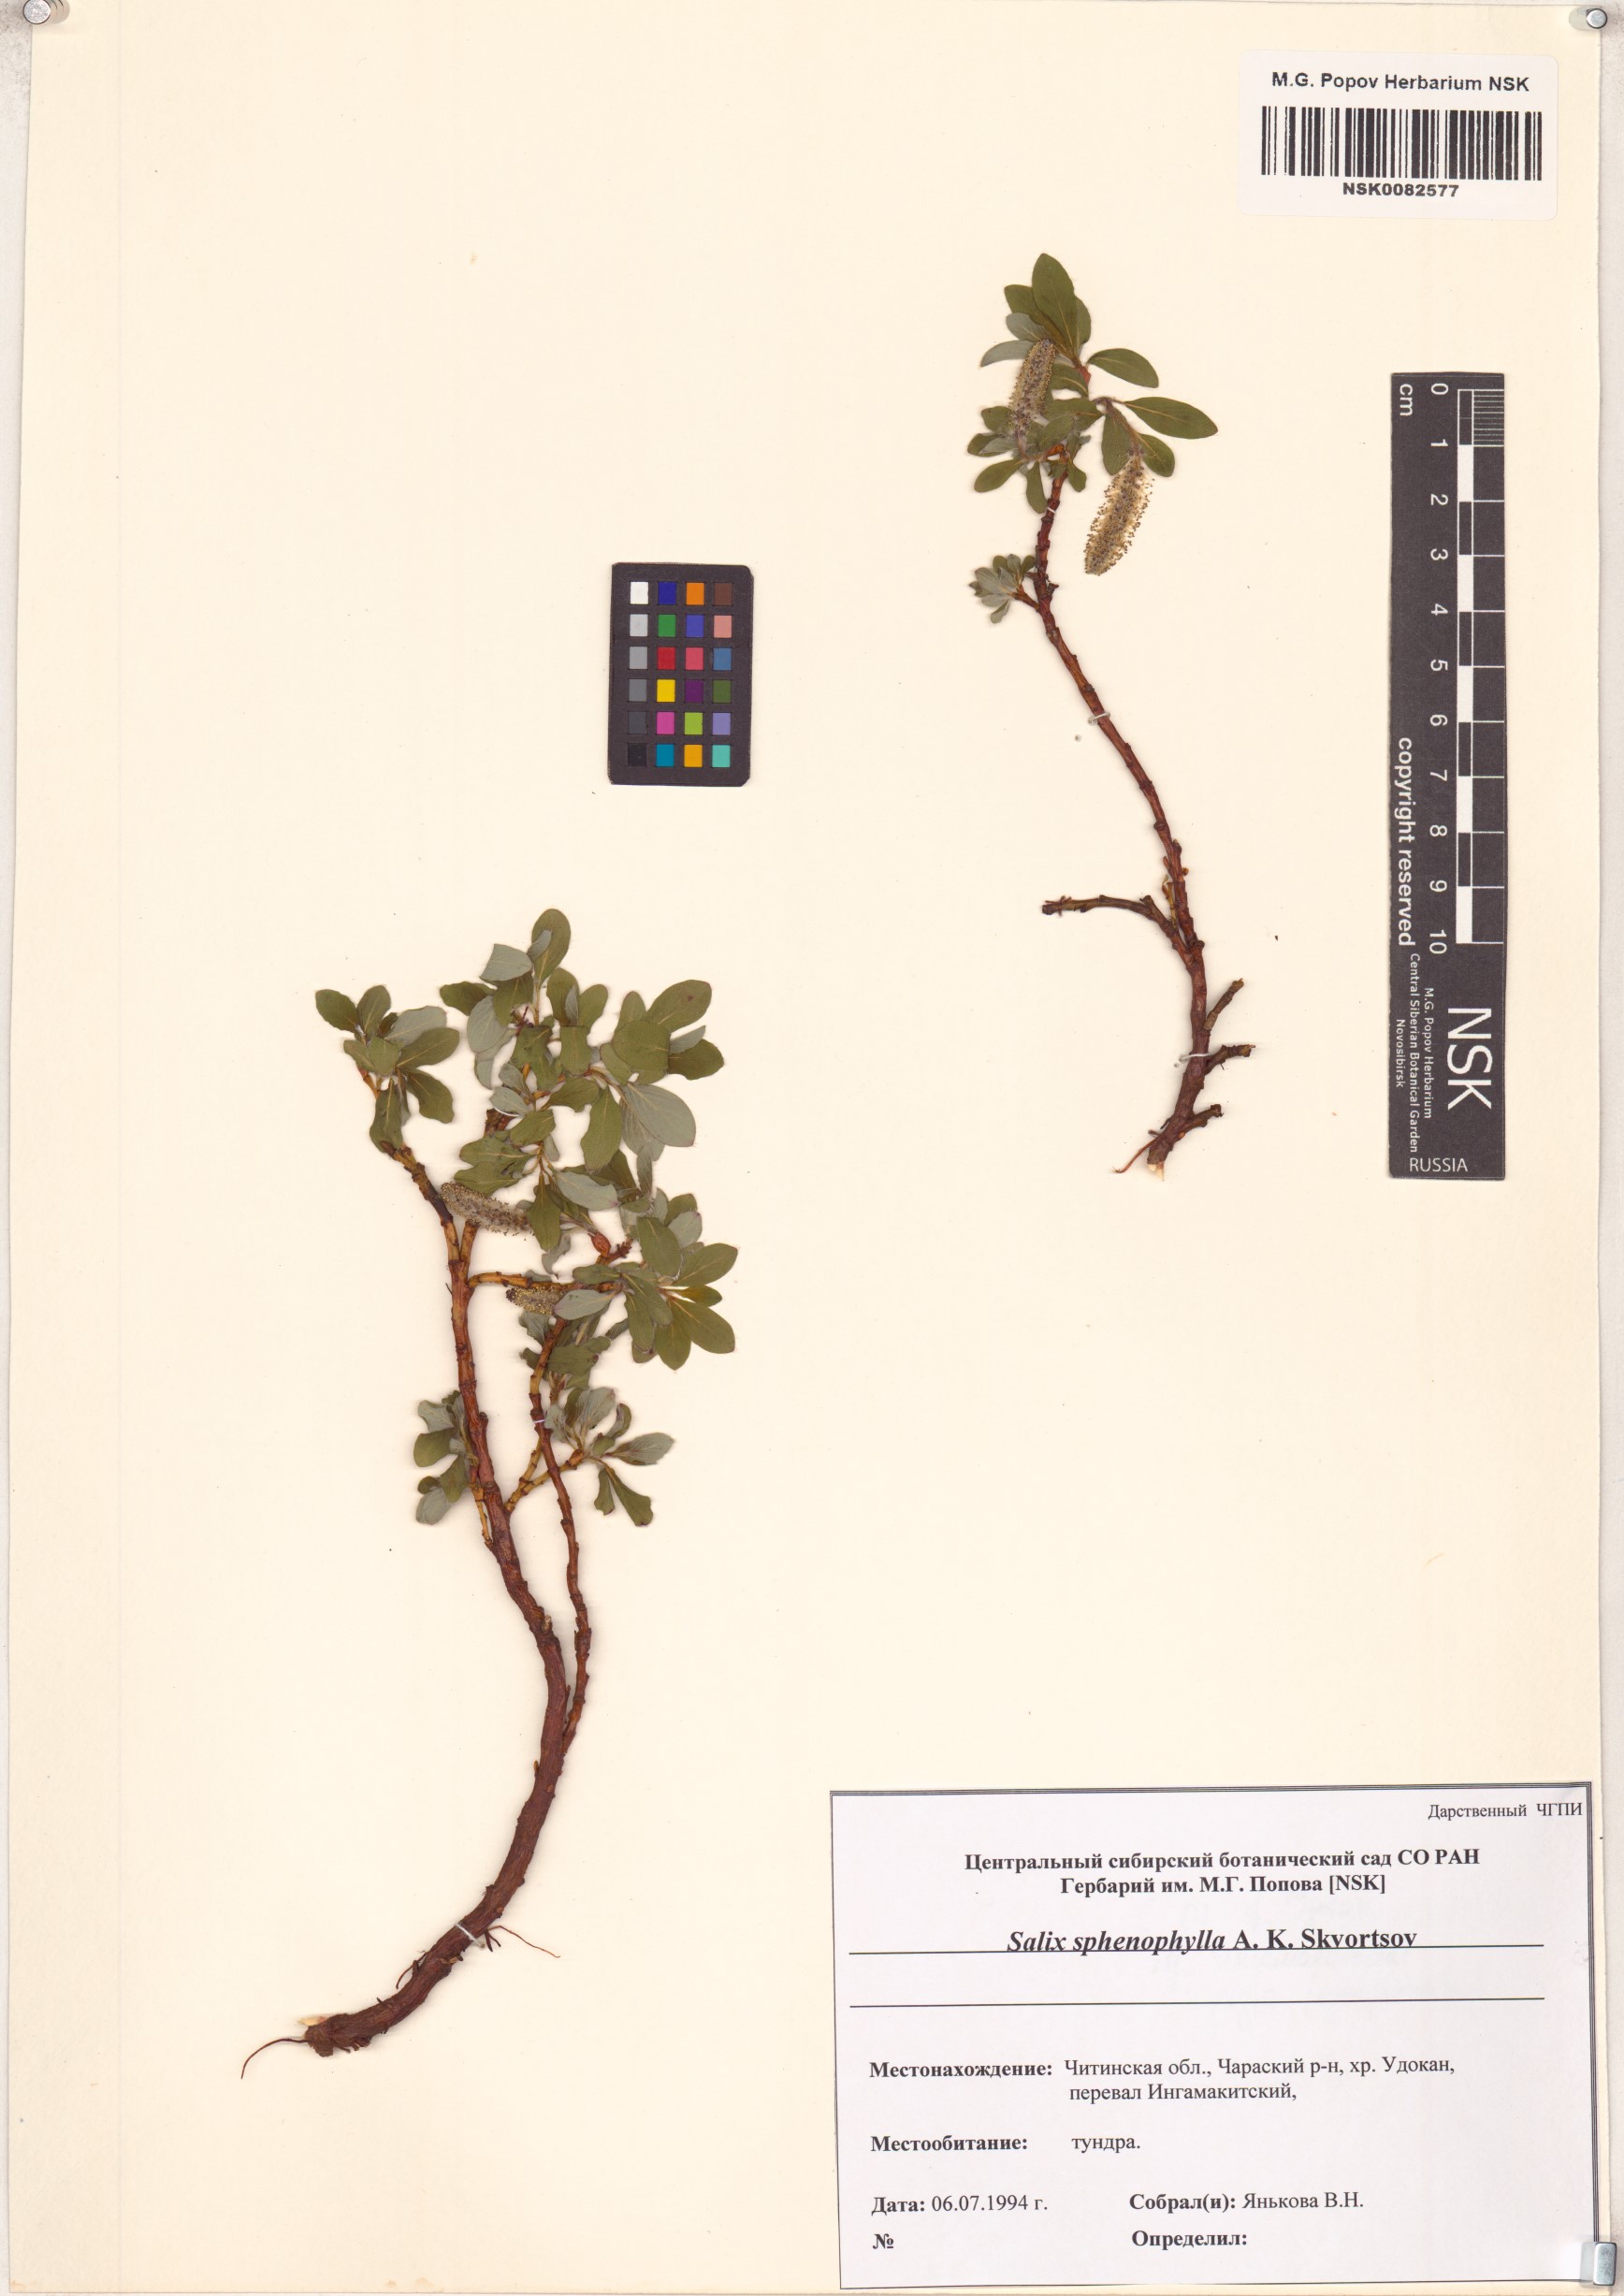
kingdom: Plantae
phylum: Tracheophyta
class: Magnoliopsida
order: Malpighiales
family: Salicaceae
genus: Salix
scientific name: Salix sphenophylla
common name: Wedge-leaved willow
